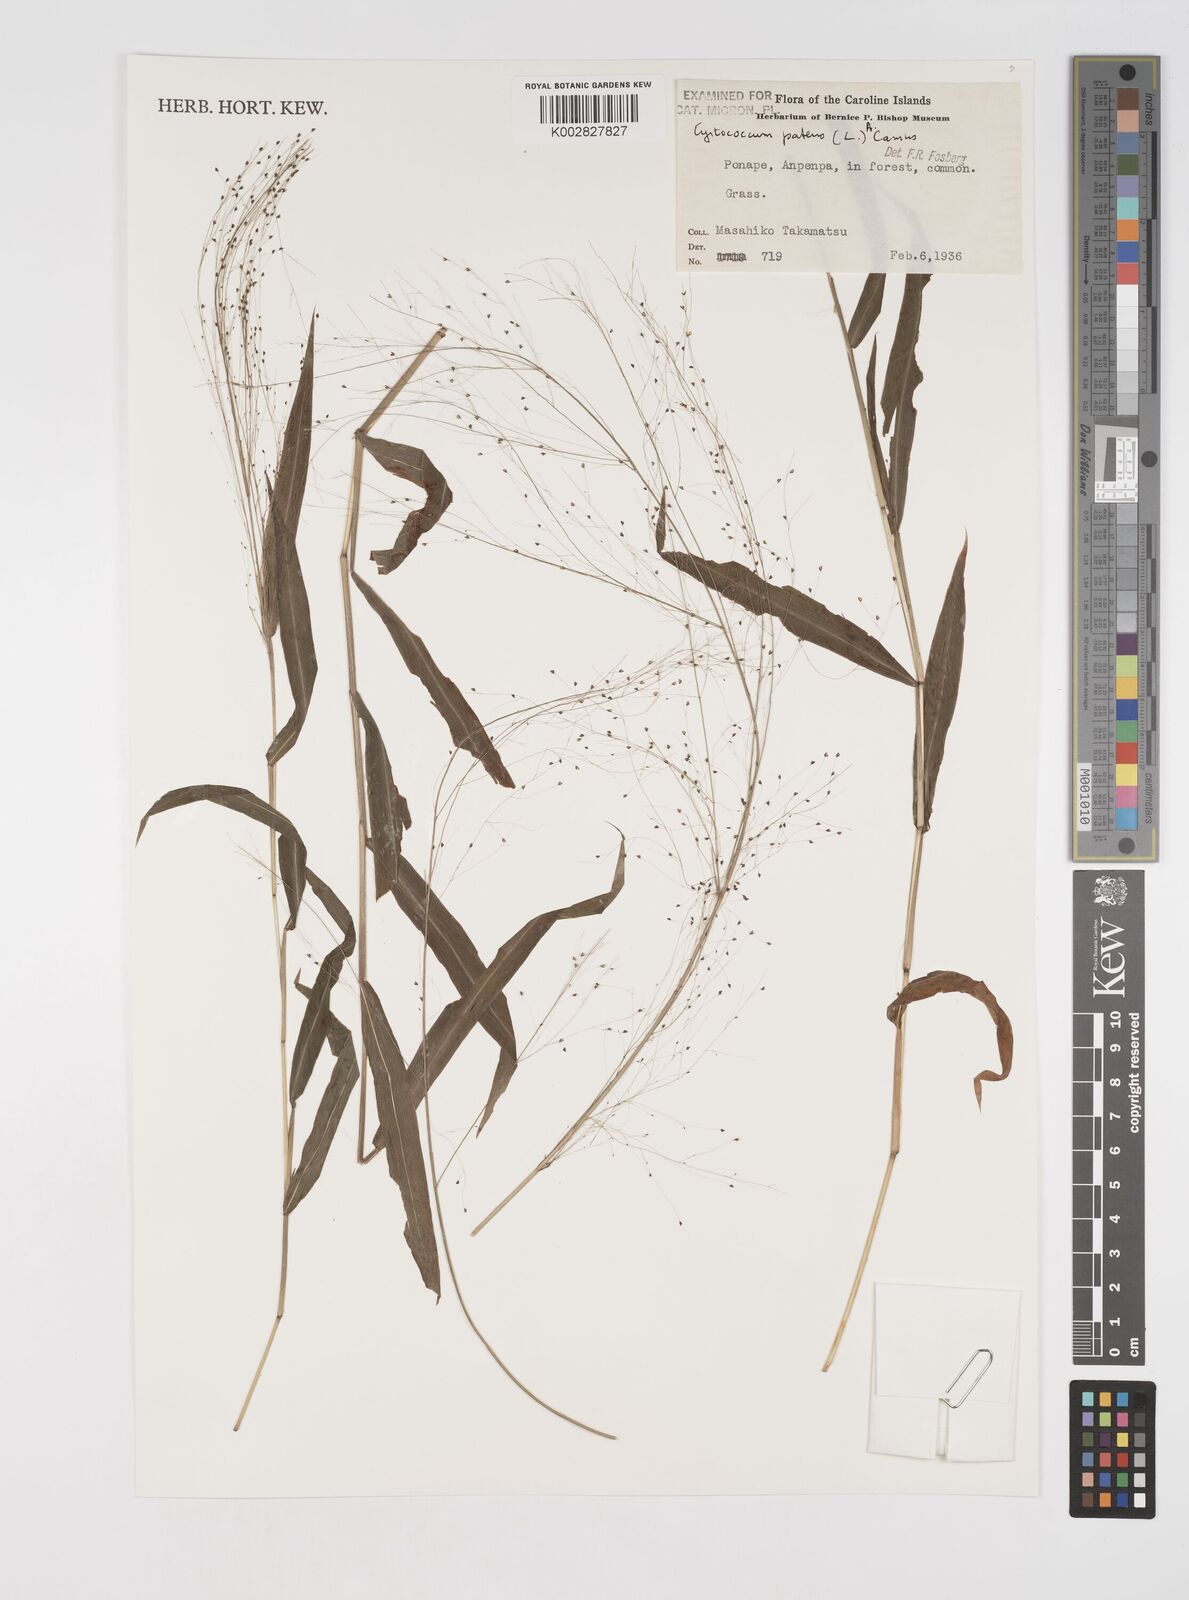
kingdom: Plantae
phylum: Tracheophyta
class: Liliopsida
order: Poales
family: Poaceae
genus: Cyrtococcum
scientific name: Cyrtococcum patens
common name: Broad-leaved bowgrass
